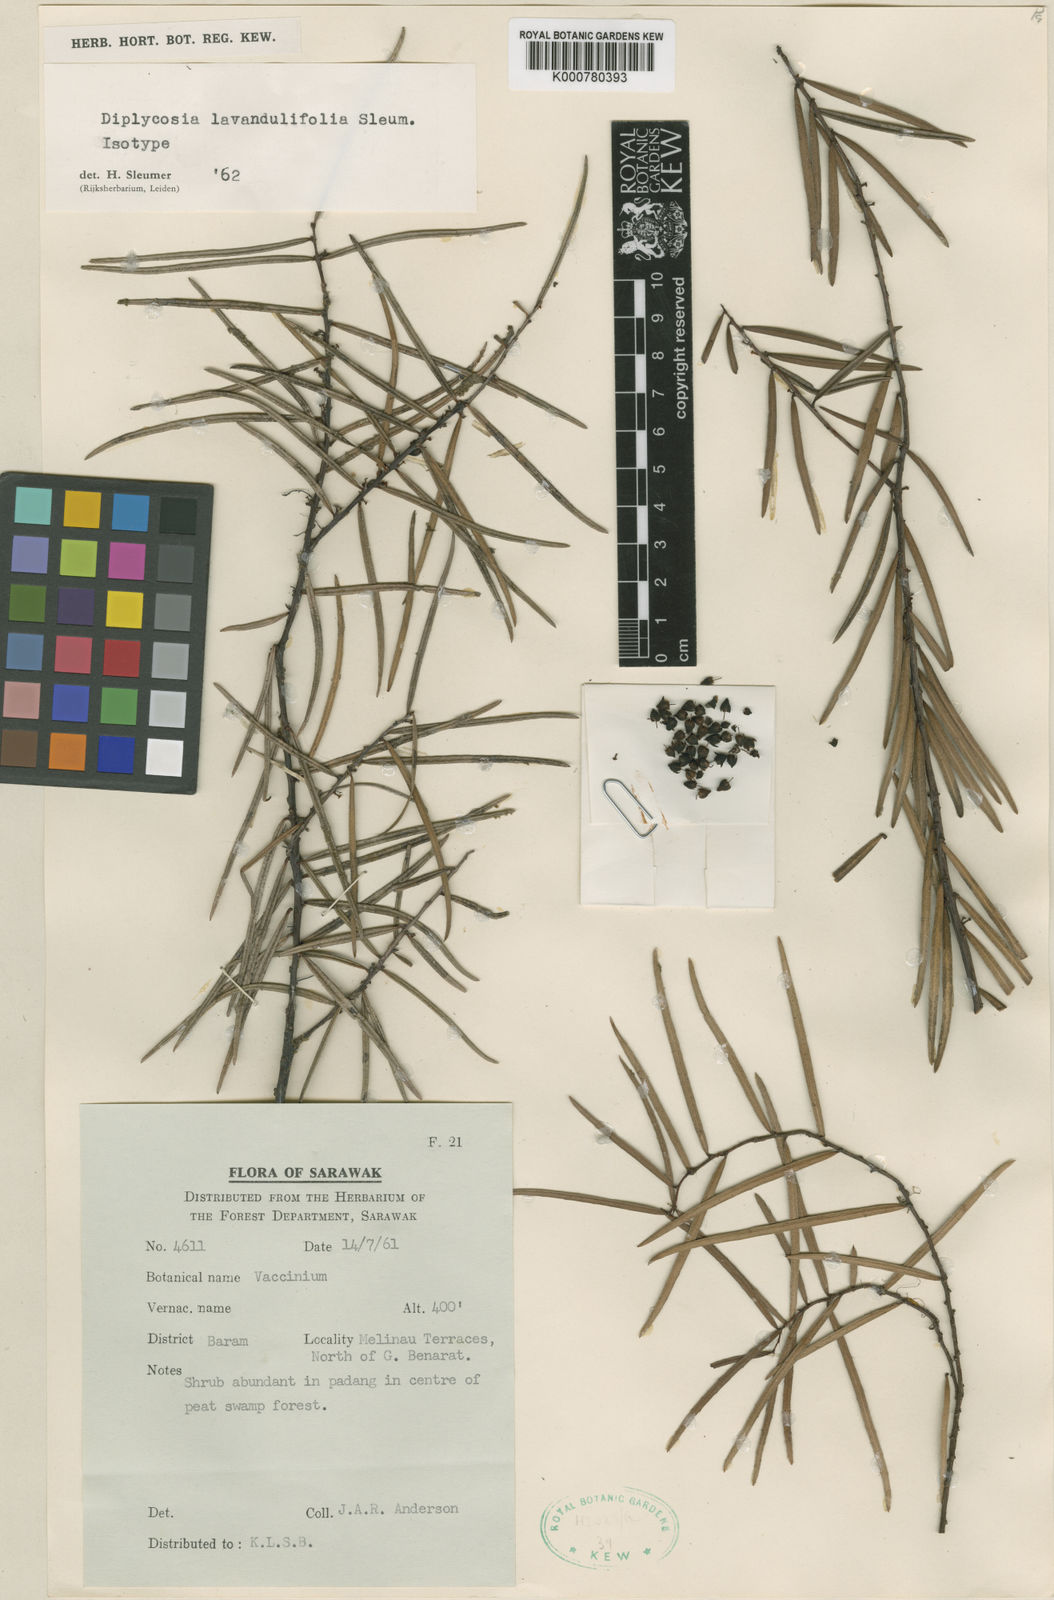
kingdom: Plantae
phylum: Tracheophyta
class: Magnoliopsida
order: Ericales
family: Ericaceae
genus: Gaultheria
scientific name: Gaultheria lavandulifolia
